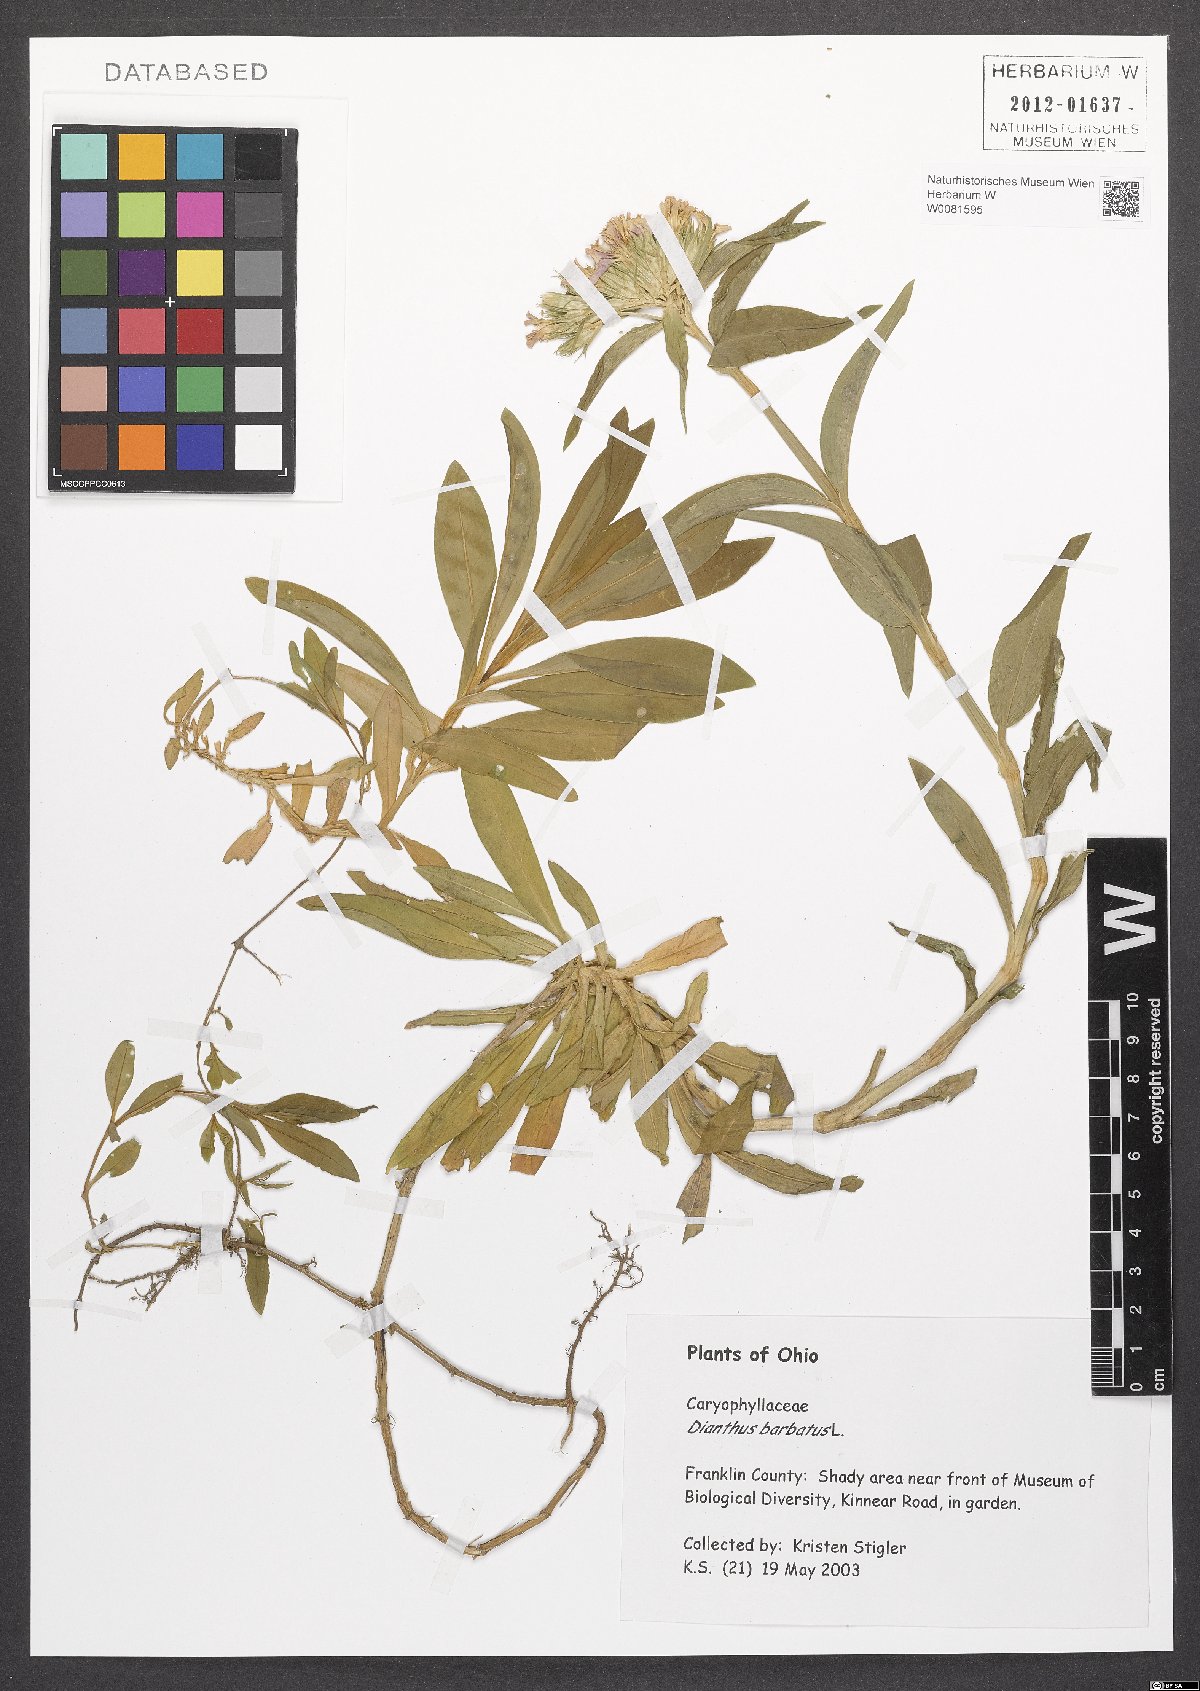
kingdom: Plantae
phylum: Tracheophyta
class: Magnoliopsida
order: Caryophyllales
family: Caryophyllaceae
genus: Dianthus
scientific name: Dianthus barbatus
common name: Sweet-william
